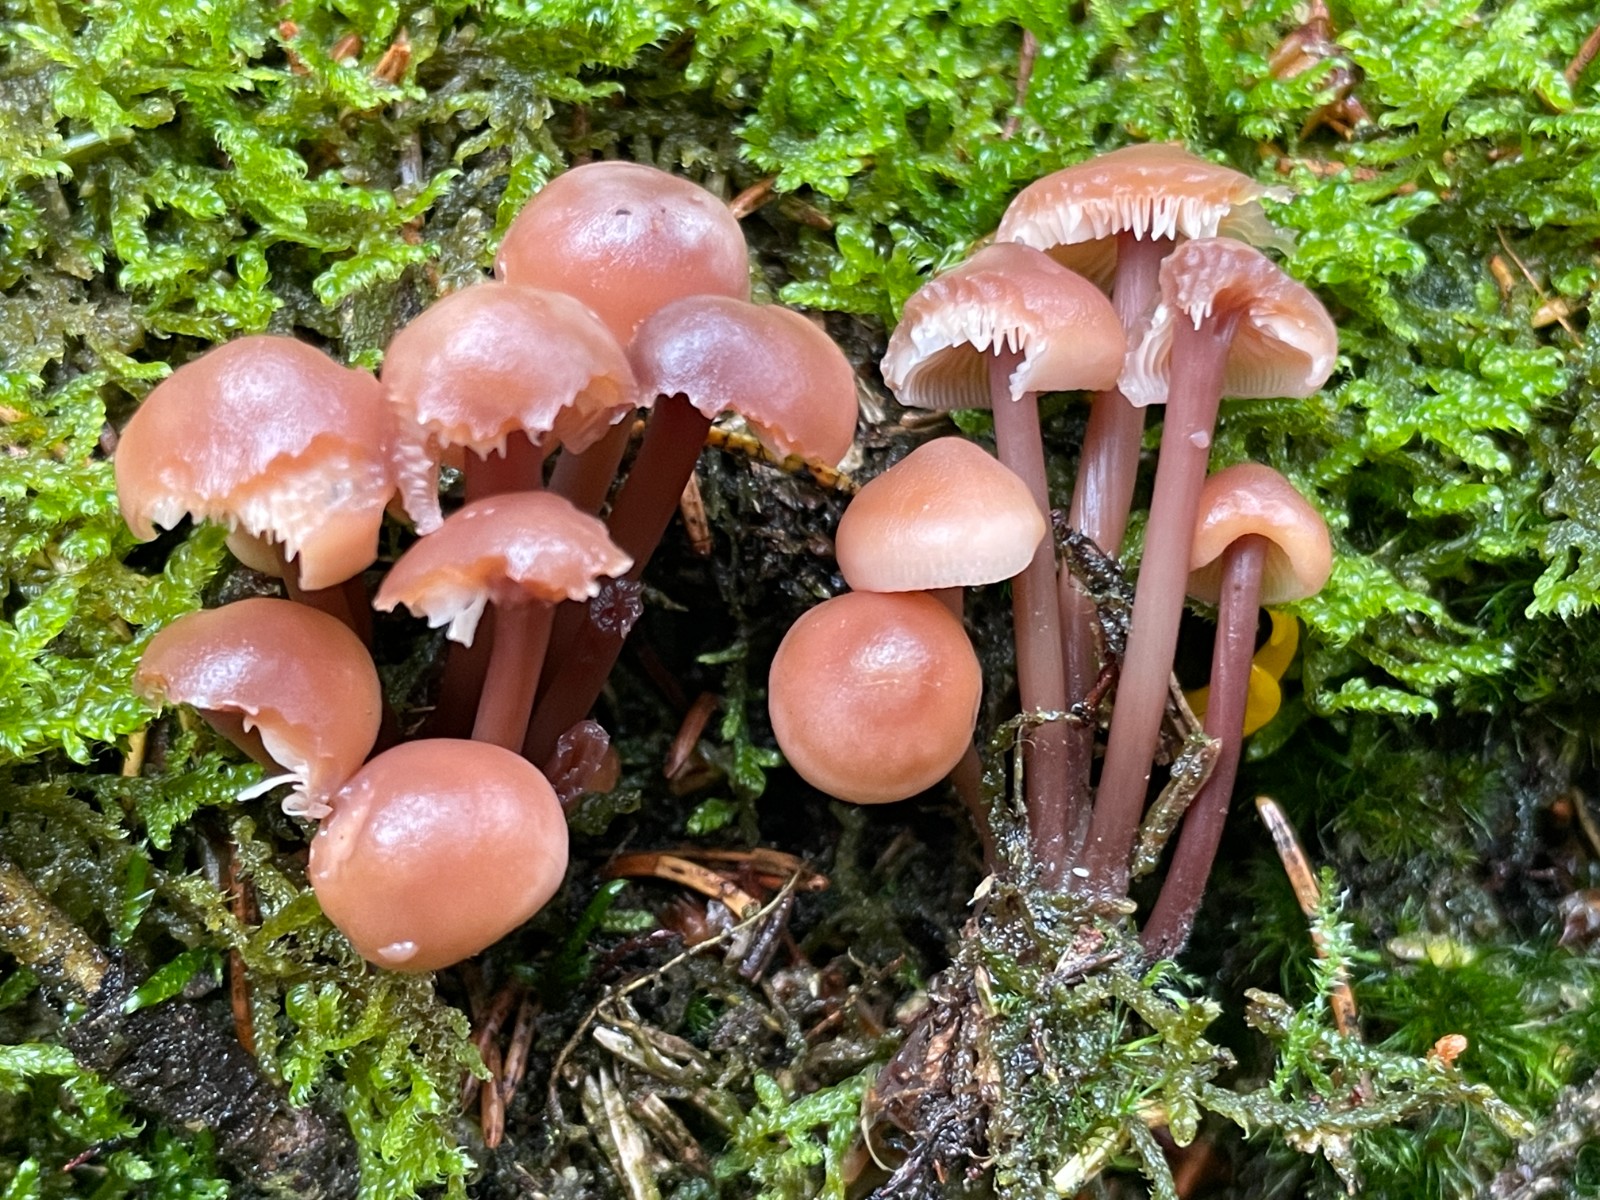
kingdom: Fungi
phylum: Basidiomycota
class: Agaricomycetes
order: Agaricales
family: Omphalotaceae
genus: Connopus
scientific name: Connopus acervatus
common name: tue-fladhat
